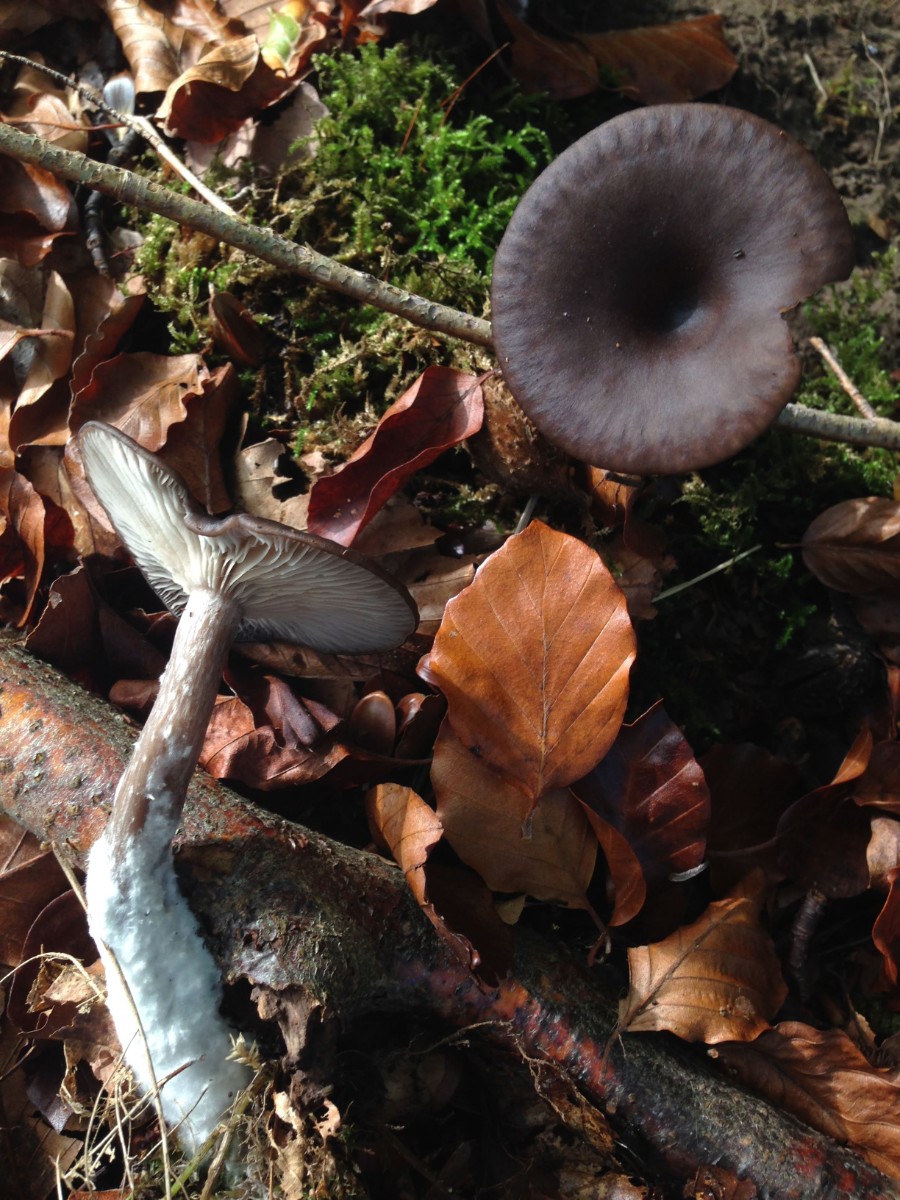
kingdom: Fungi
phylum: Basidiomycota
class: Agaricomycetes
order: Agaricales
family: Pseudoclitocybaceae
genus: Pseudoclitocybe
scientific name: Pseudoclitocybe cyathiformis
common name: almindelig bægertragthat
